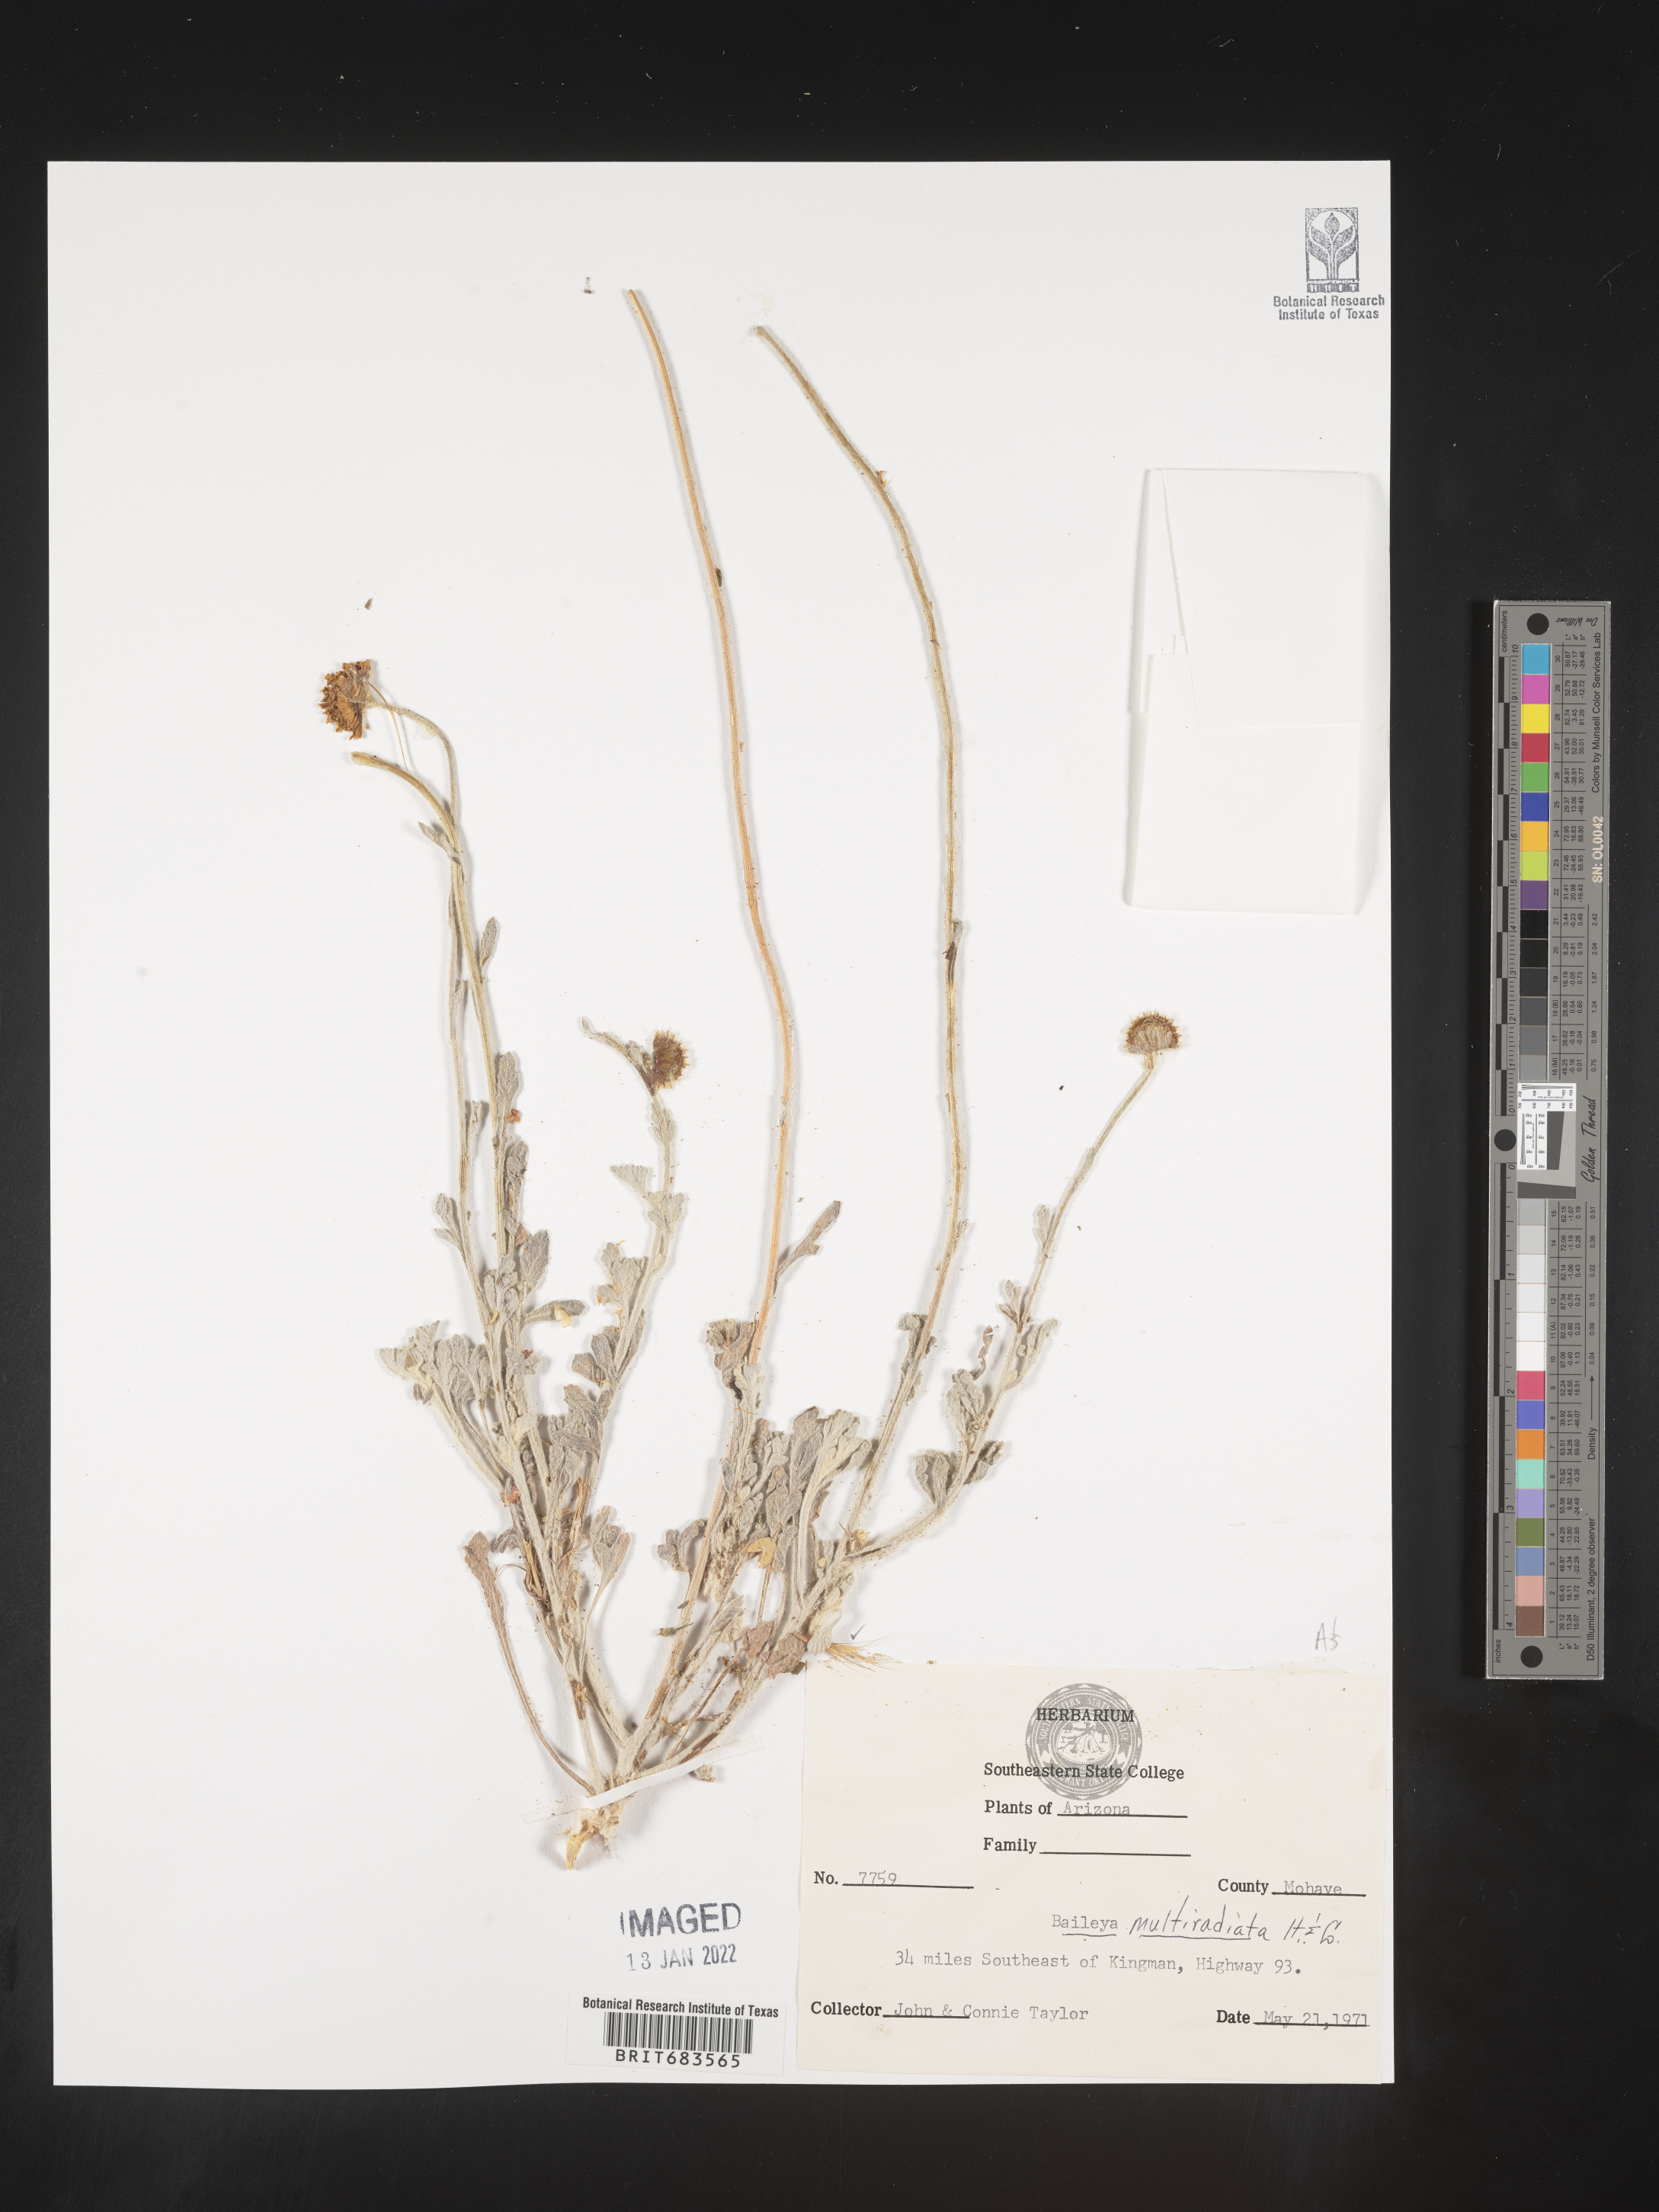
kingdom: Plantae
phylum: Tracheophyta
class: Magnoliopsida
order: Asterales
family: Asteraceae
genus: Baileya
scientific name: Baileya multiradiata
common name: Desert-marigold
